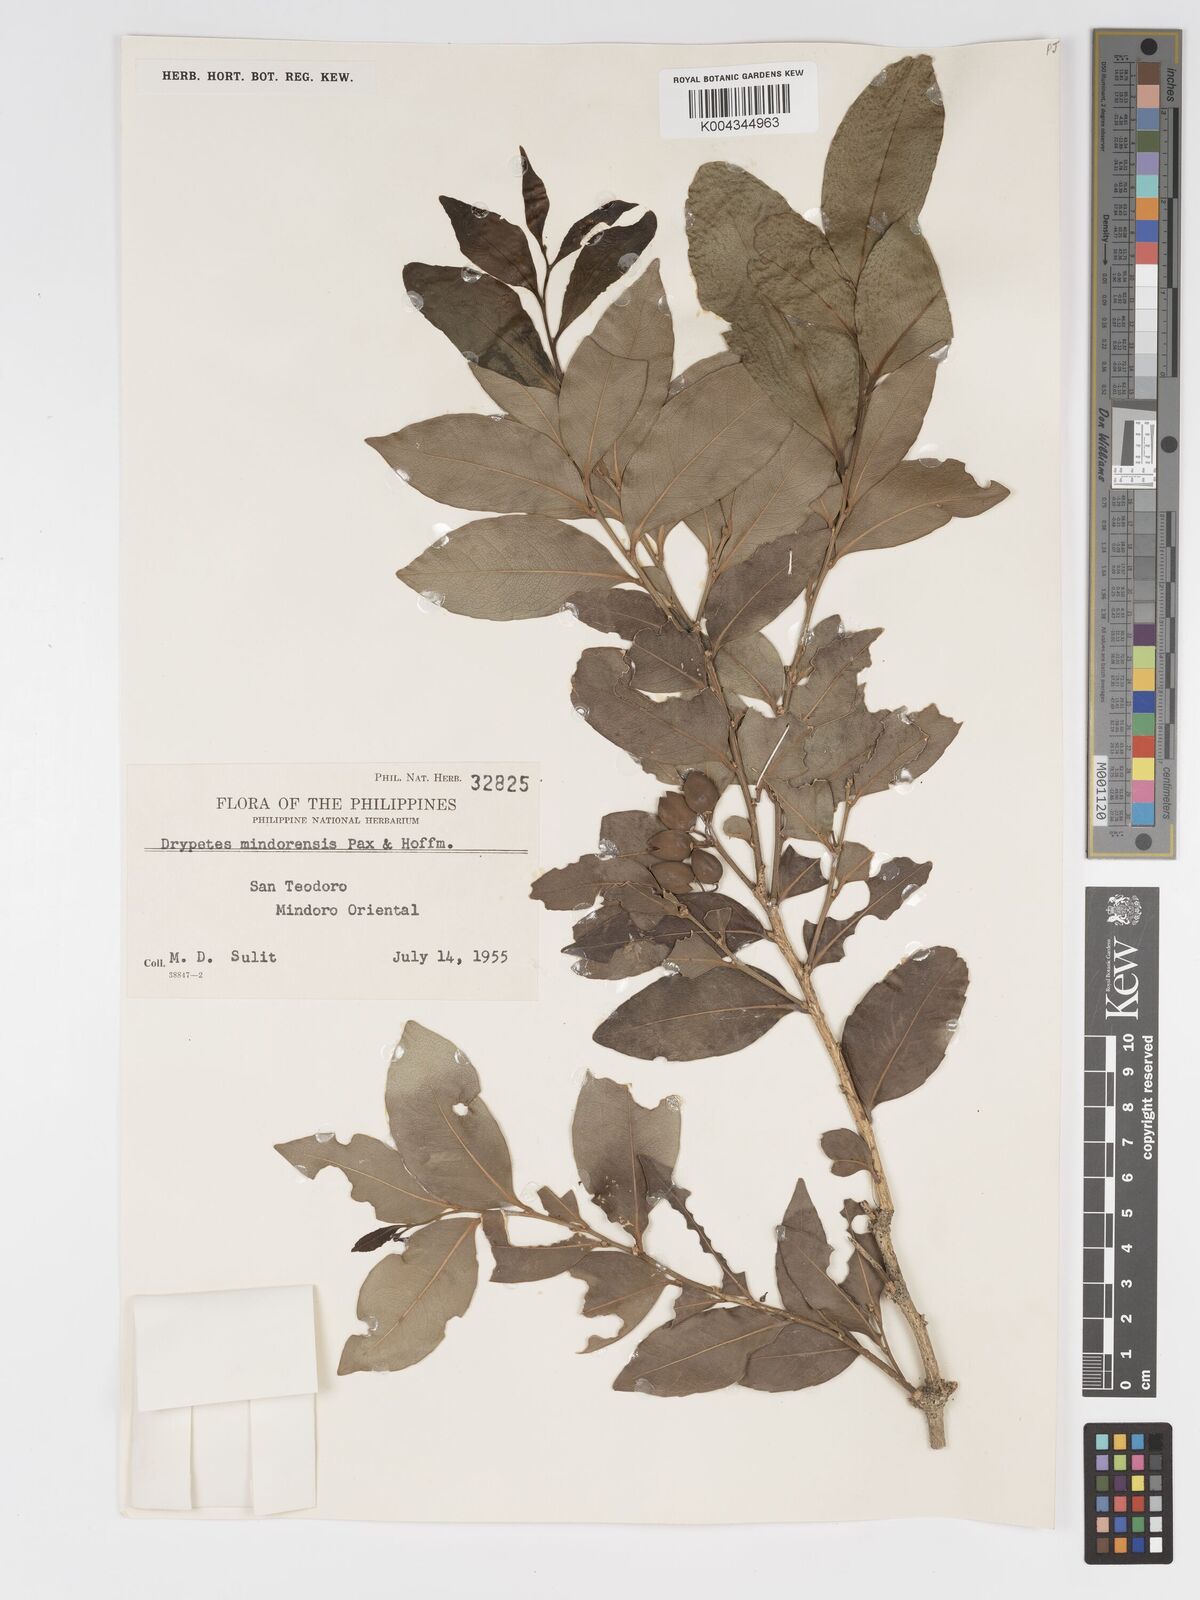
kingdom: Plantae
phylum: Tracheophyta
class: Magnoliopsida
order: Malpighiales
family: Putranjivaceae
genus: Drypetes
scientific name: Drypetes littoralis
